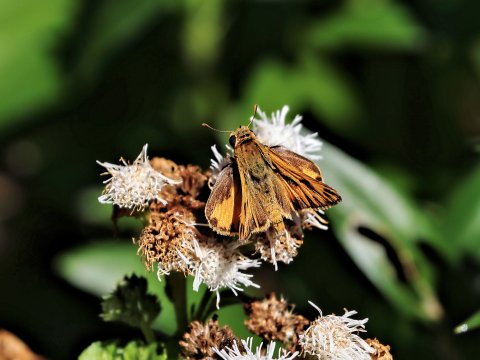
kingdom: Animalia
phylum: Arthropoda
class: Insecta
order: Lepidoptera
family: Hesperiidae
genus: Hylephila
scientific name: Hylephila phyleus
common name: Fiery Skipper
